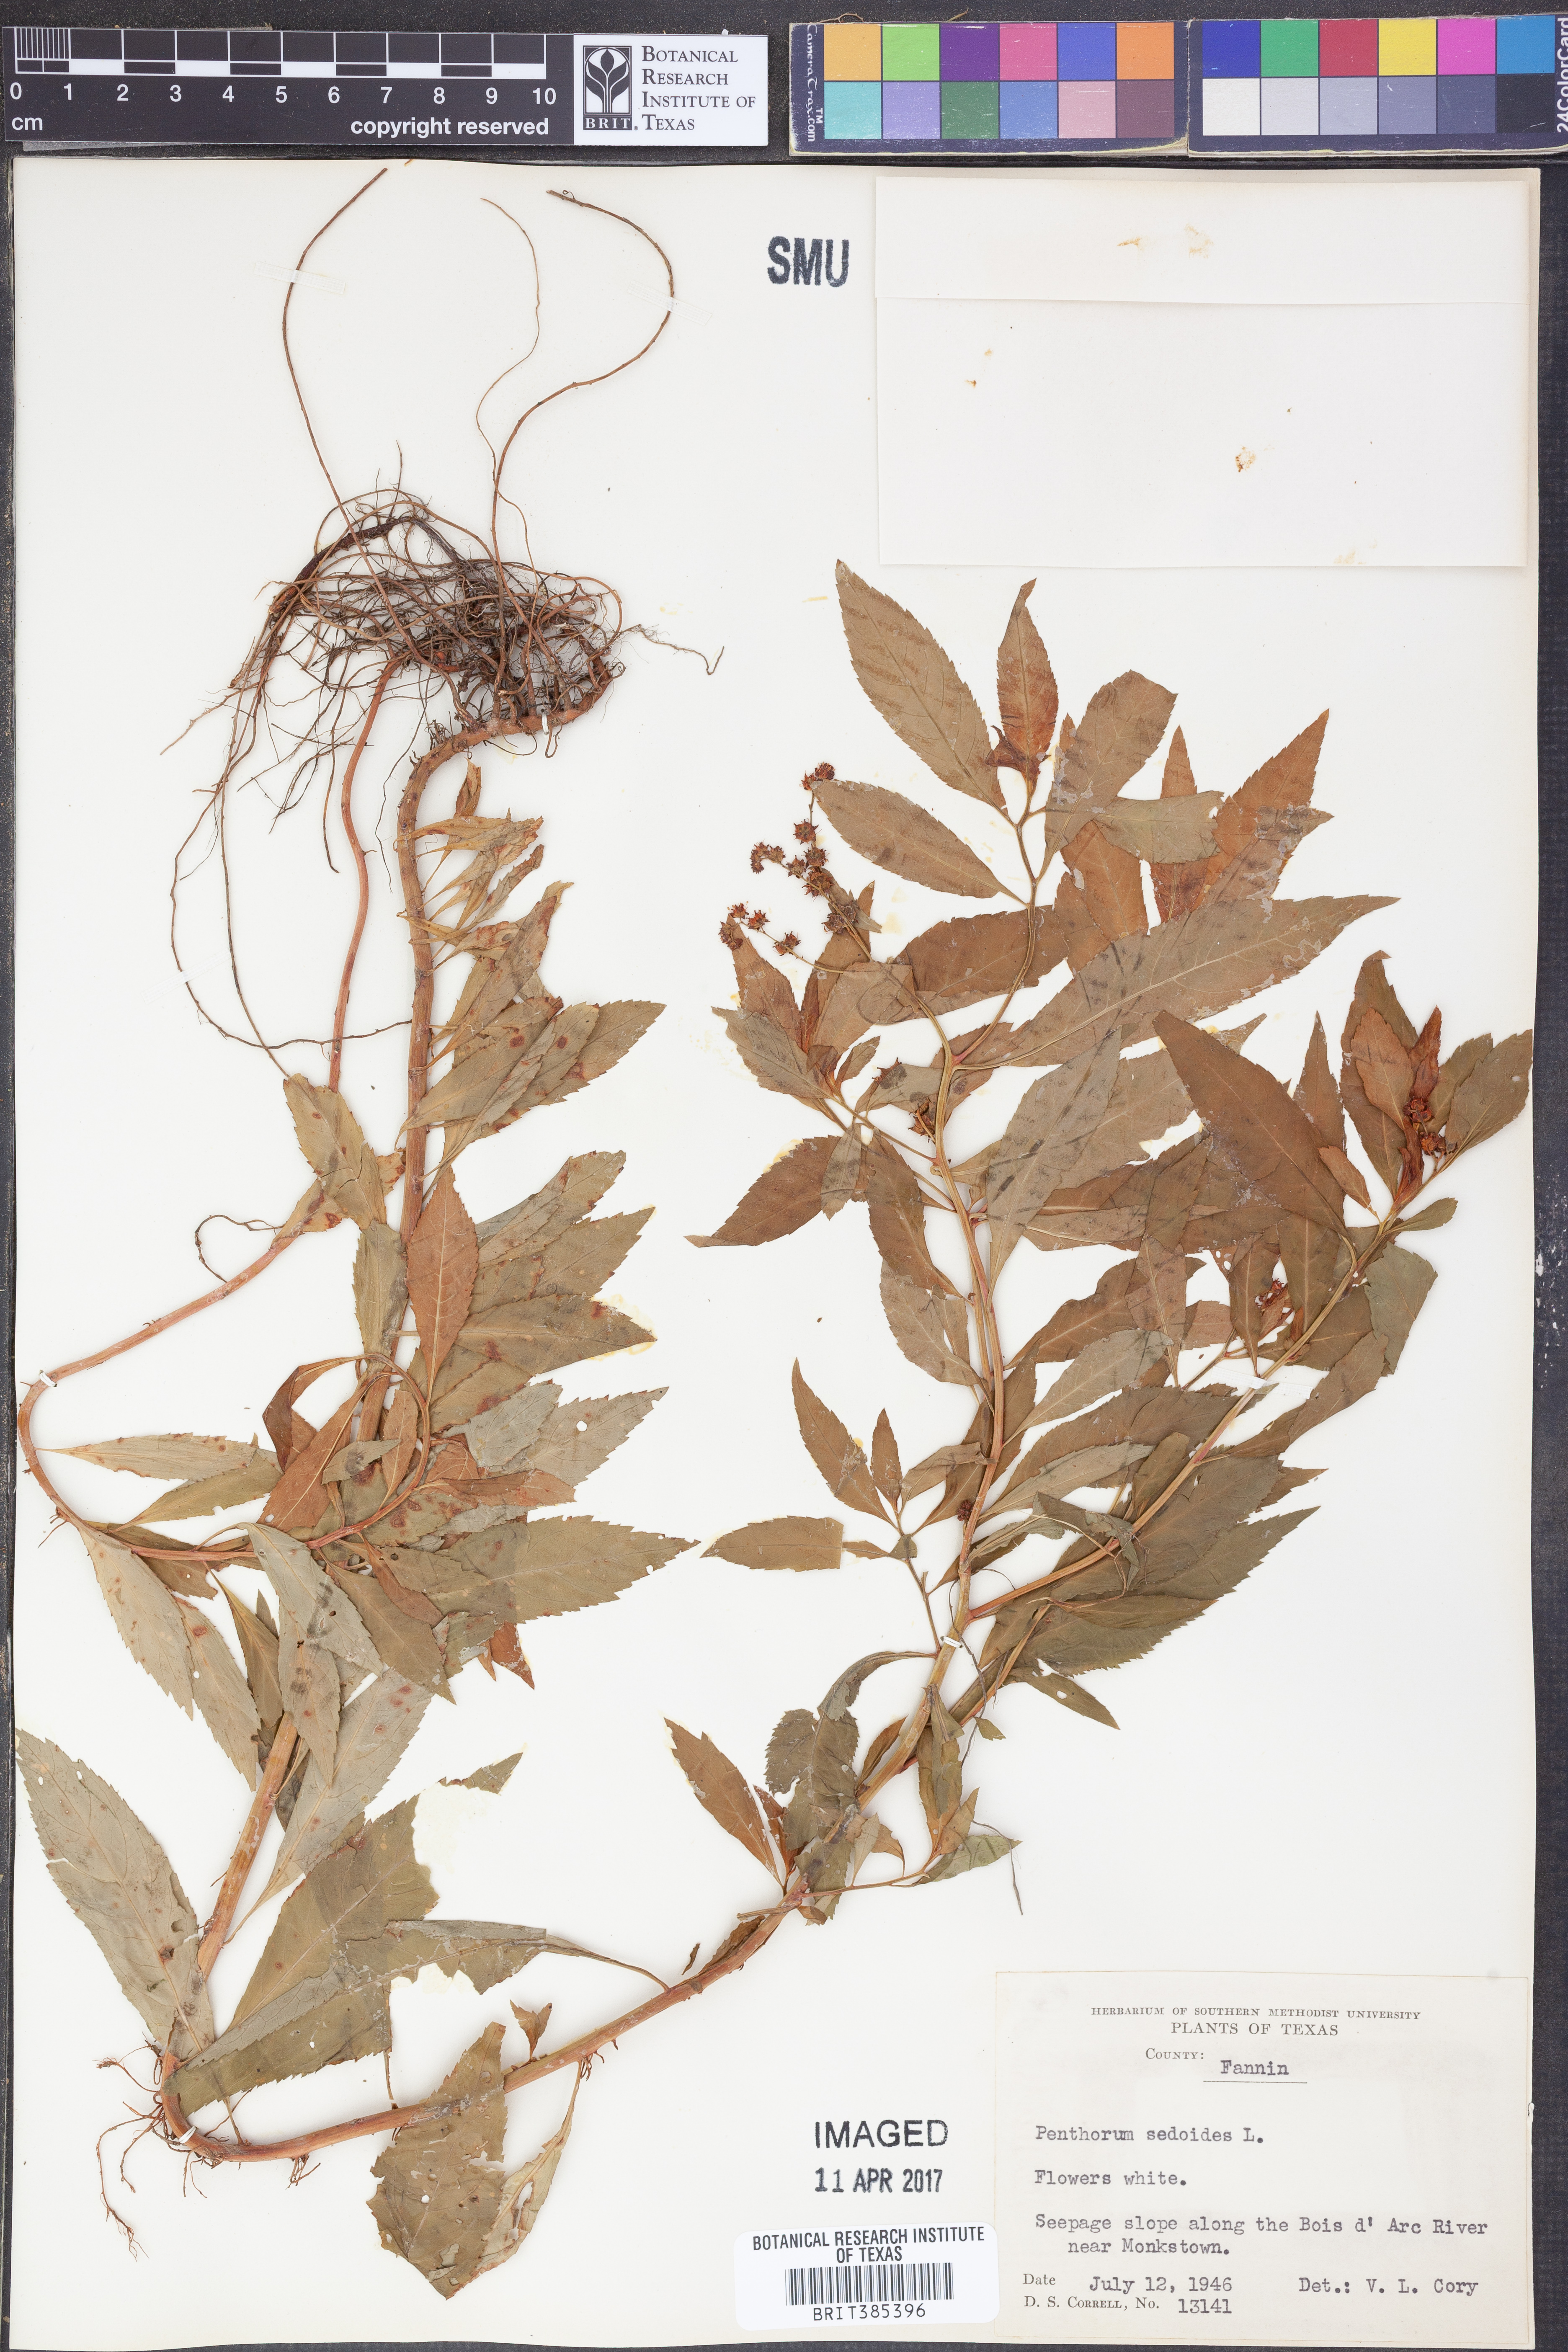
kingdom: Plantae
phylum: Tracheophyta
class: Magnoliopsida
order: Saxifragales
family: Penthoraceae
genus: Penthorum
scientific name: Penthorum sedoides
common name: Ditch stonecrop
